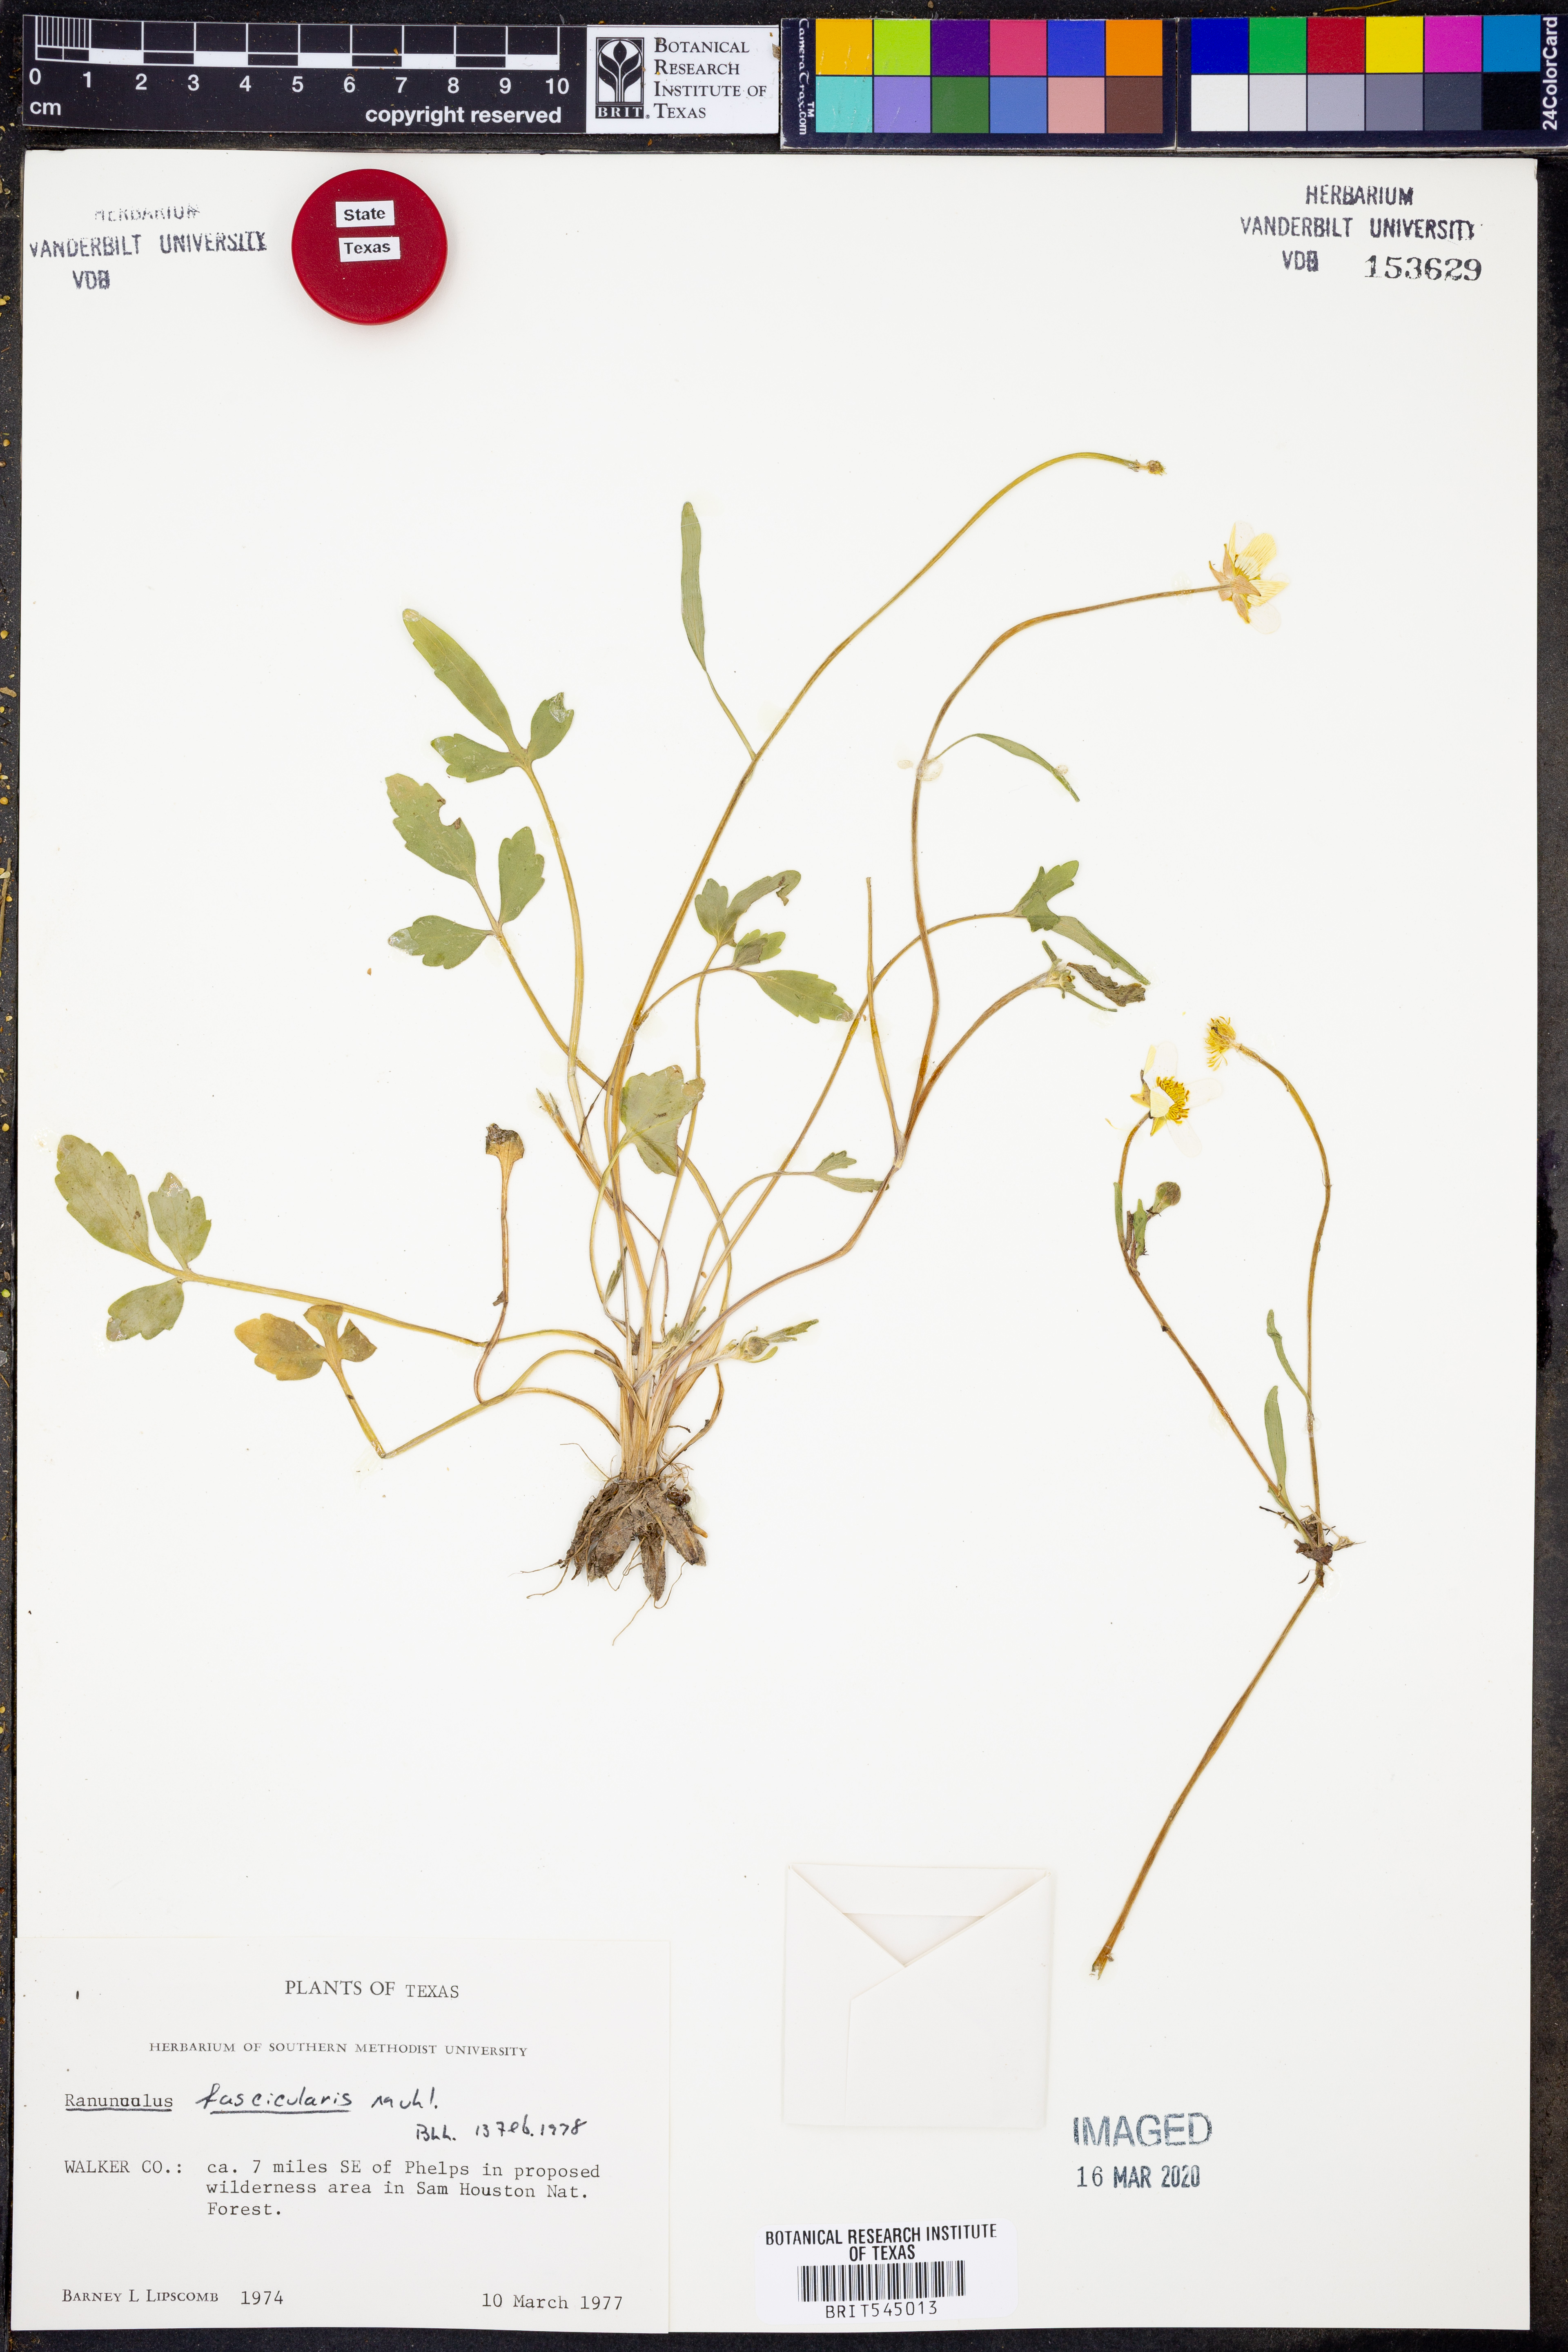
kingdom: Plantae
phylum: Tracheophyta
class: Magnoliopsida
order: Ranunculales
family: Ranunculaceae
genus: Ranunculus
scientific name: Ranunculus fascicularis
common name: Early buttercup
